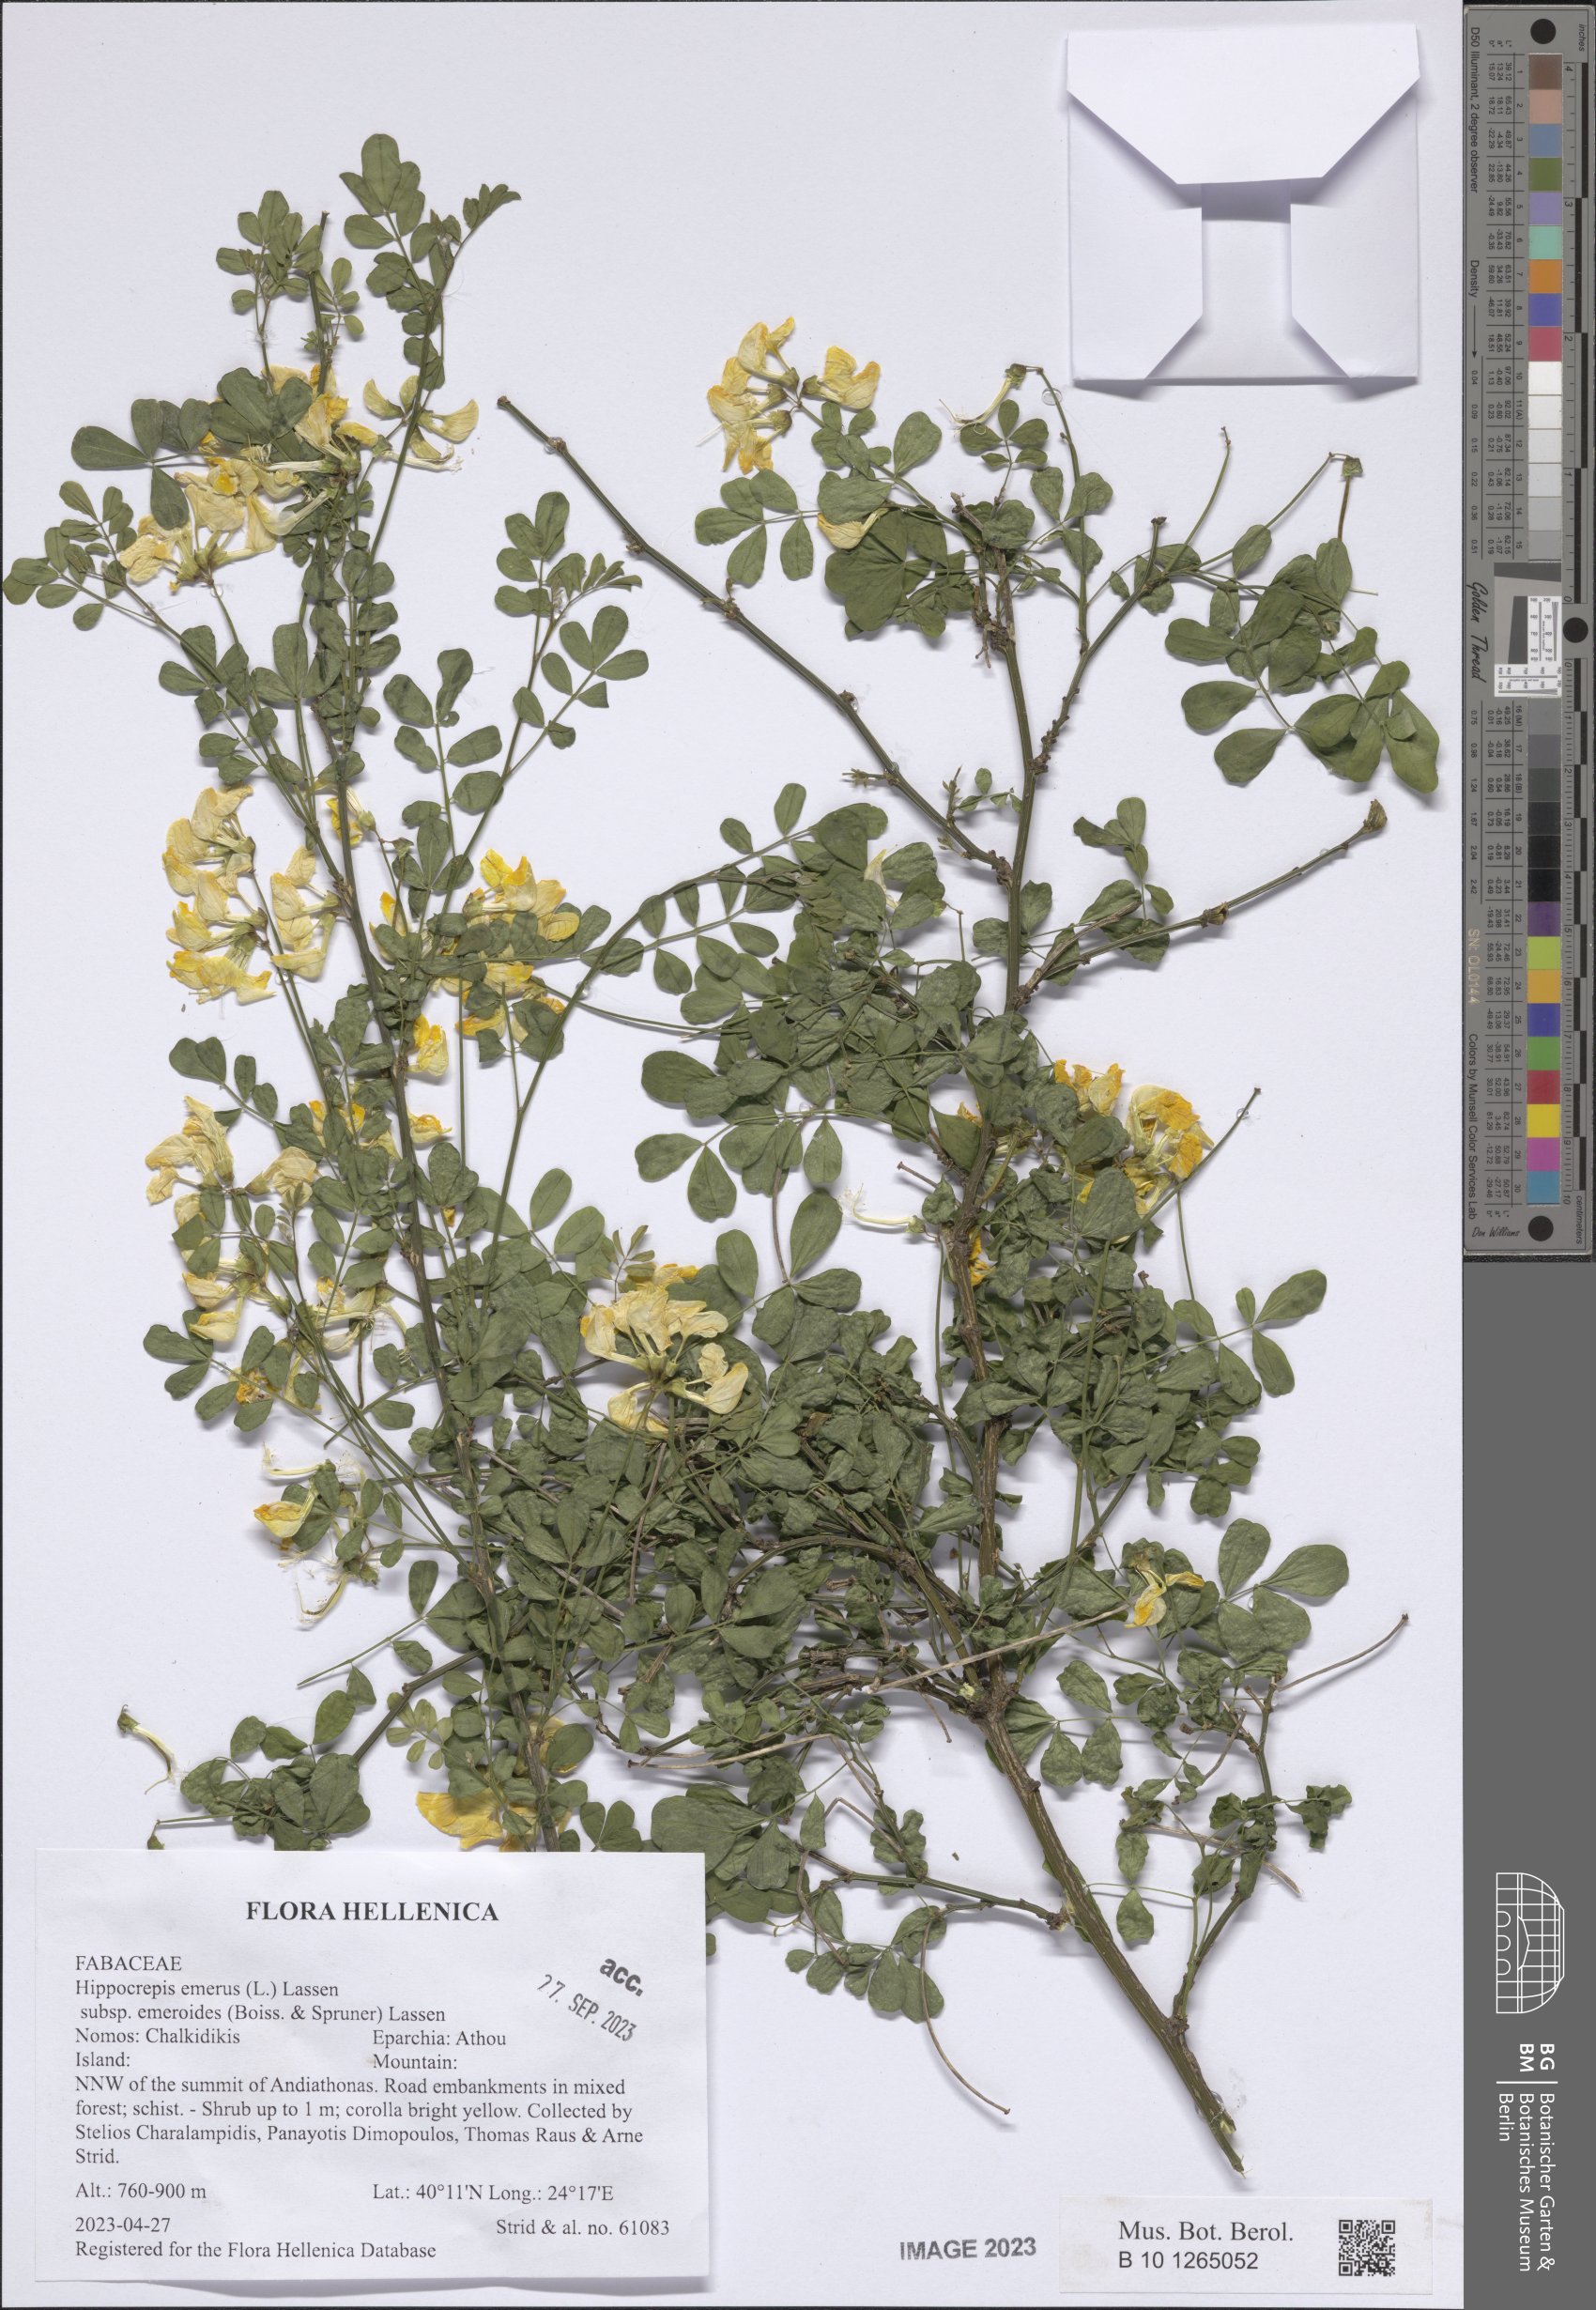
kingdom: Plantae
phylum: Tracheophyta
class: Magnoliopsida
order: Fabales
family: Fabaceae
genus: Hippocrepis
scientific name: Hippocrepis emerus
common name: Scorpion senna
